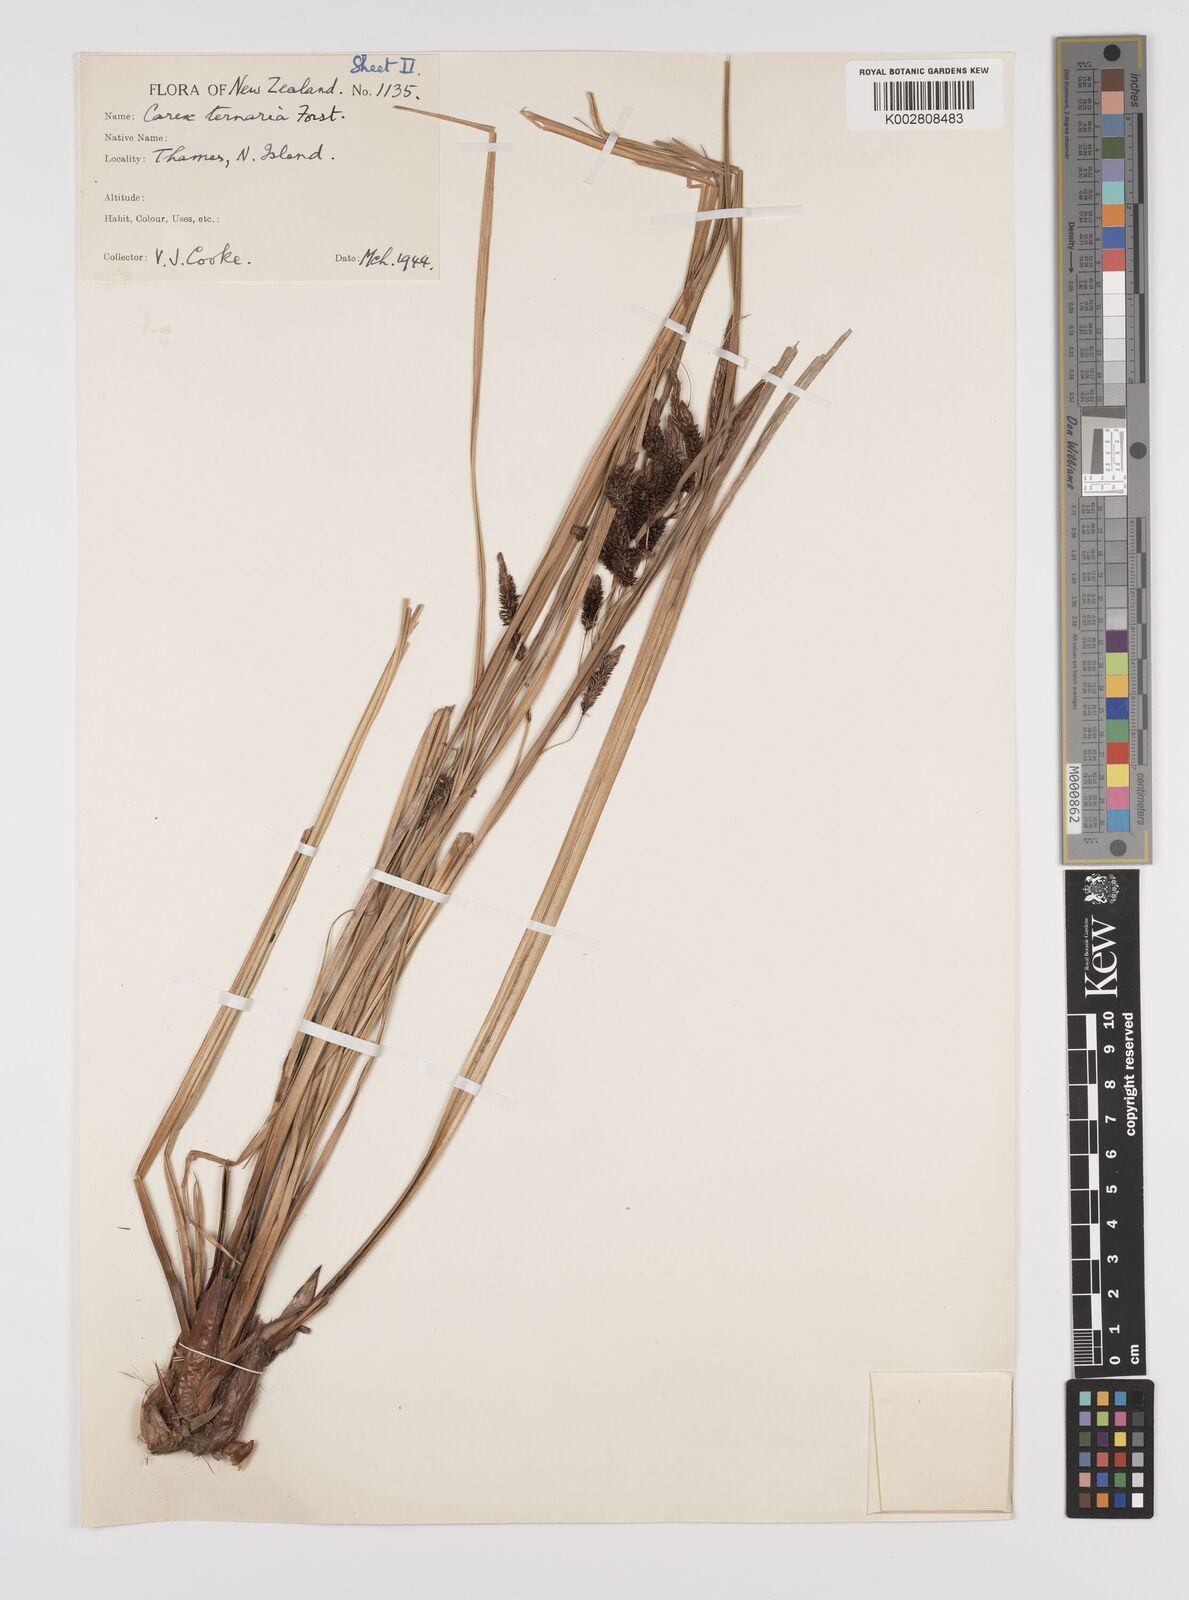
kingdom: Plantae
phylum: Tracheophyta
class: Liliopsida
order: Poales
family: Cyperaceae
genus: Carex
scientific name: Carex geminata
